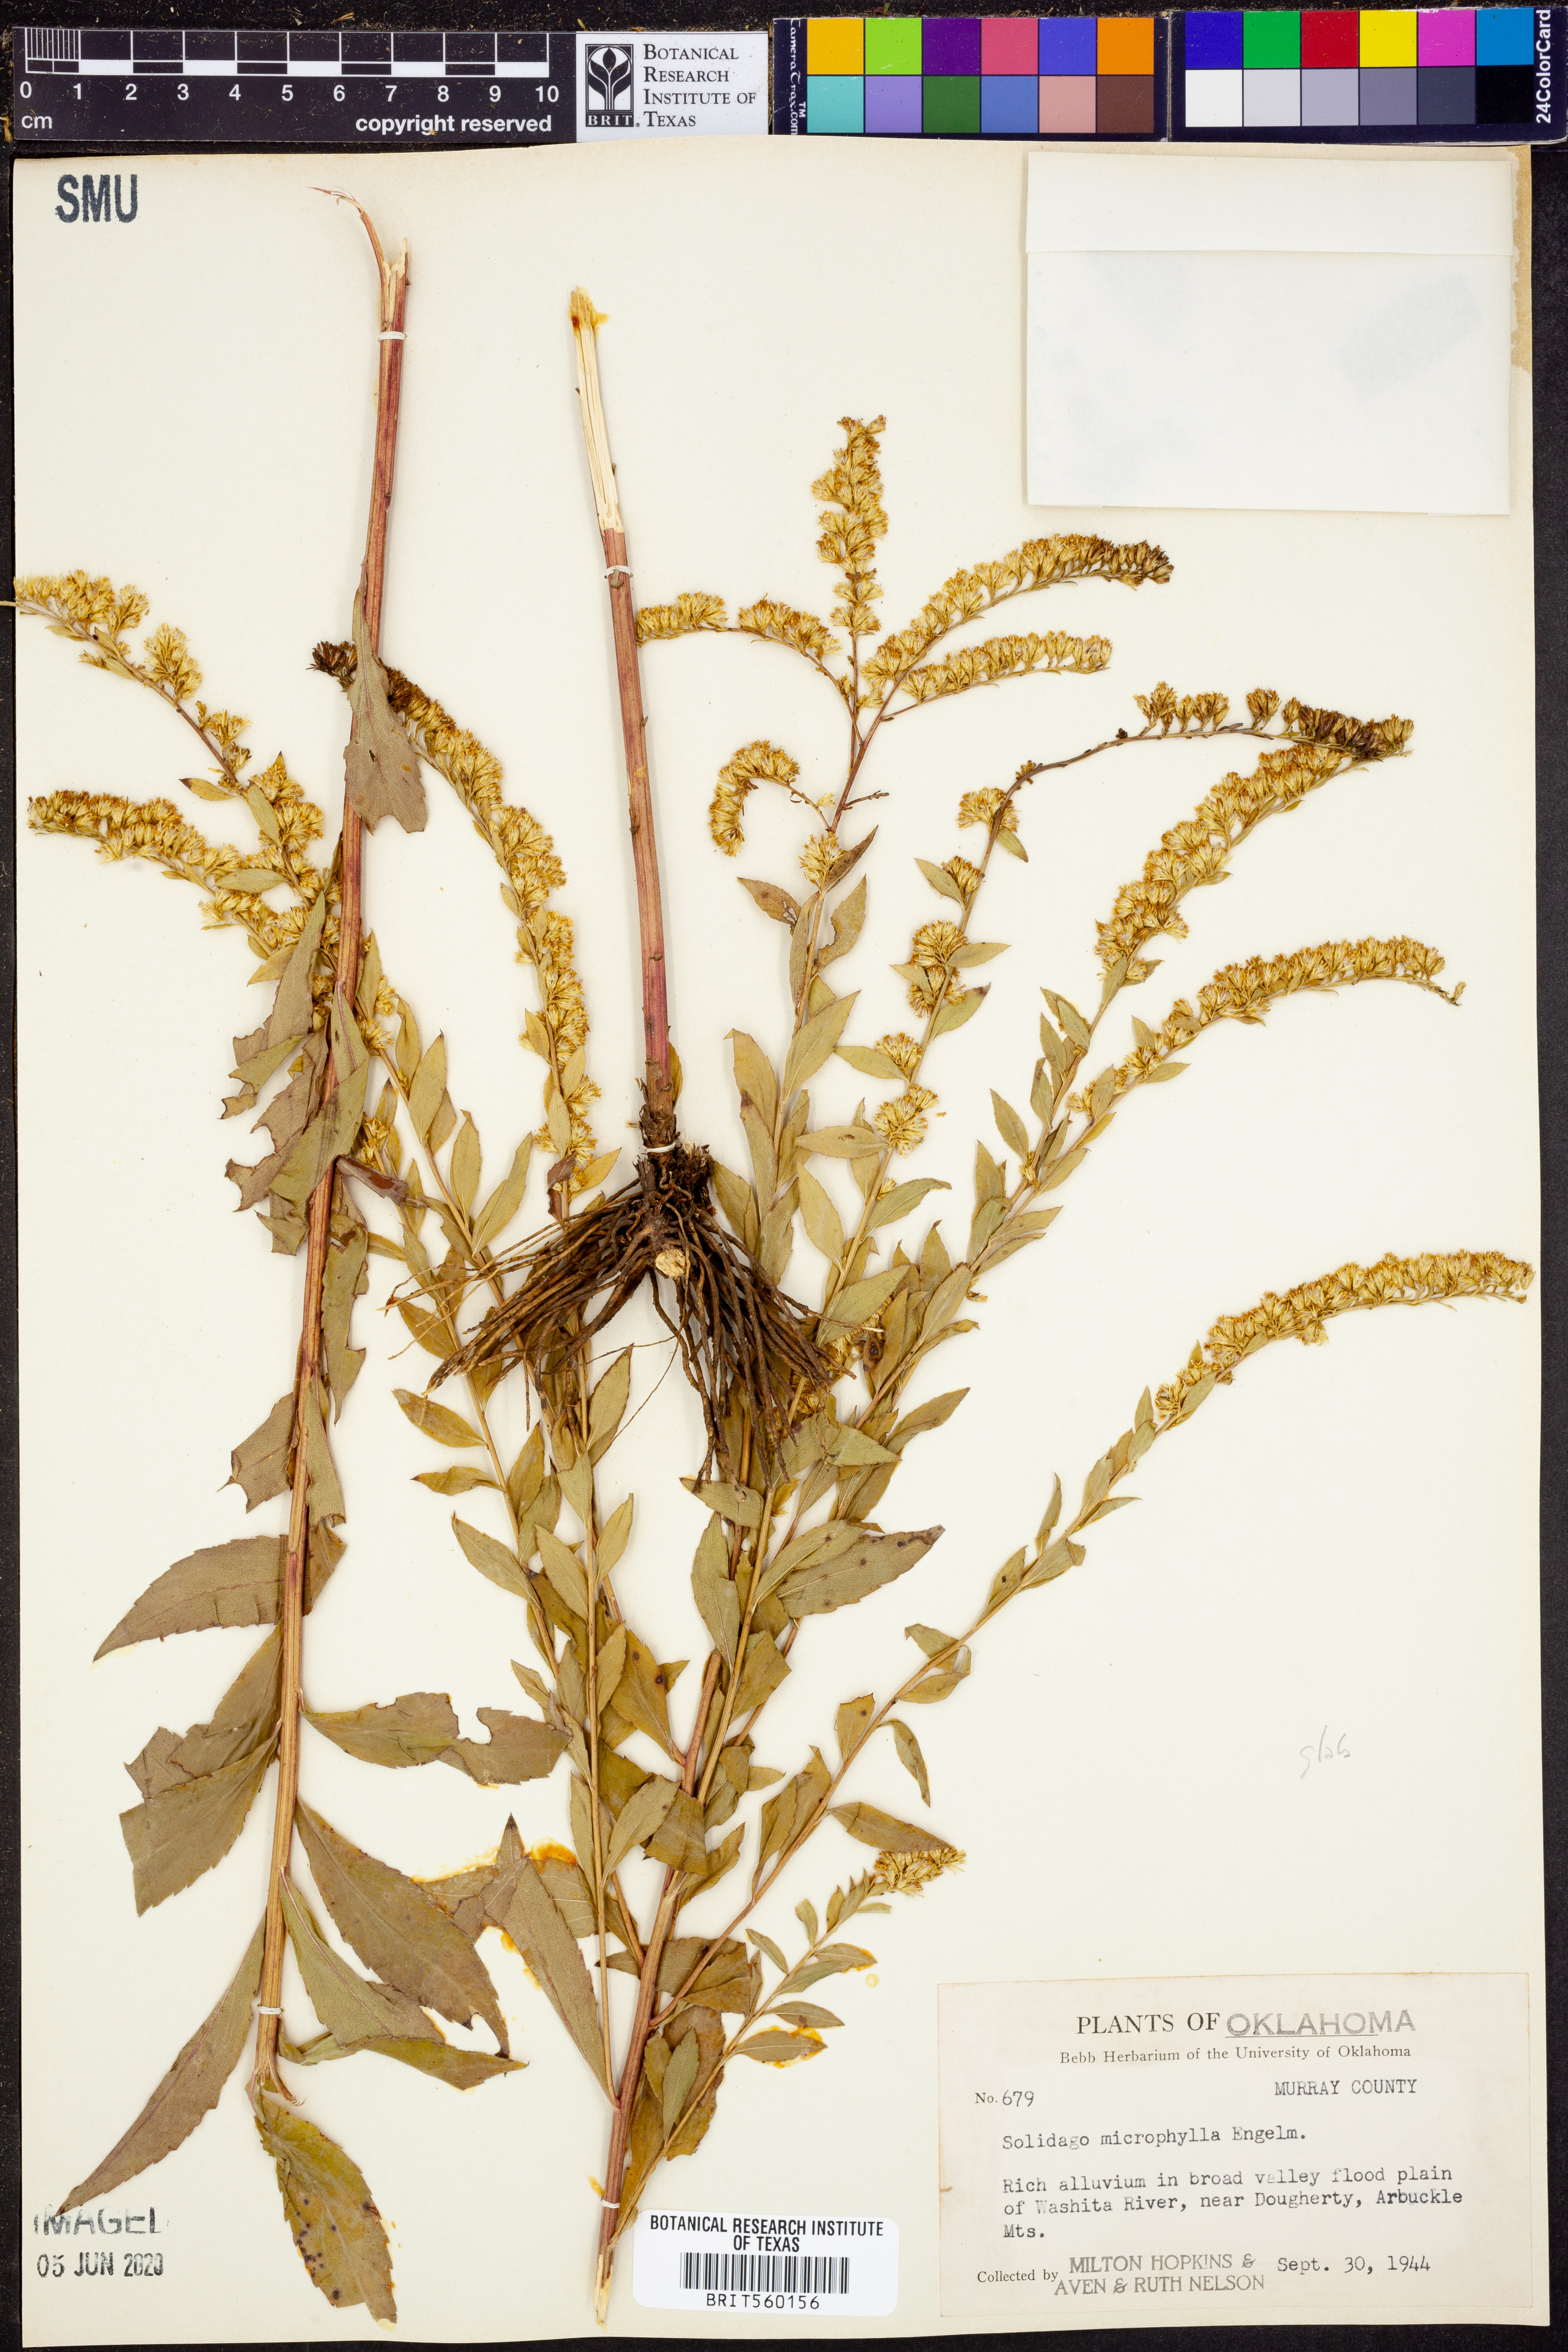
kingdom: Plantae
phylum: Tracheophyta
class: Magnoliopsida
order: Asterales
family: Asteraceae
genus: Euthamia
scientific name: Euthamia caroliniana
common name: Coastal plain goldentop
